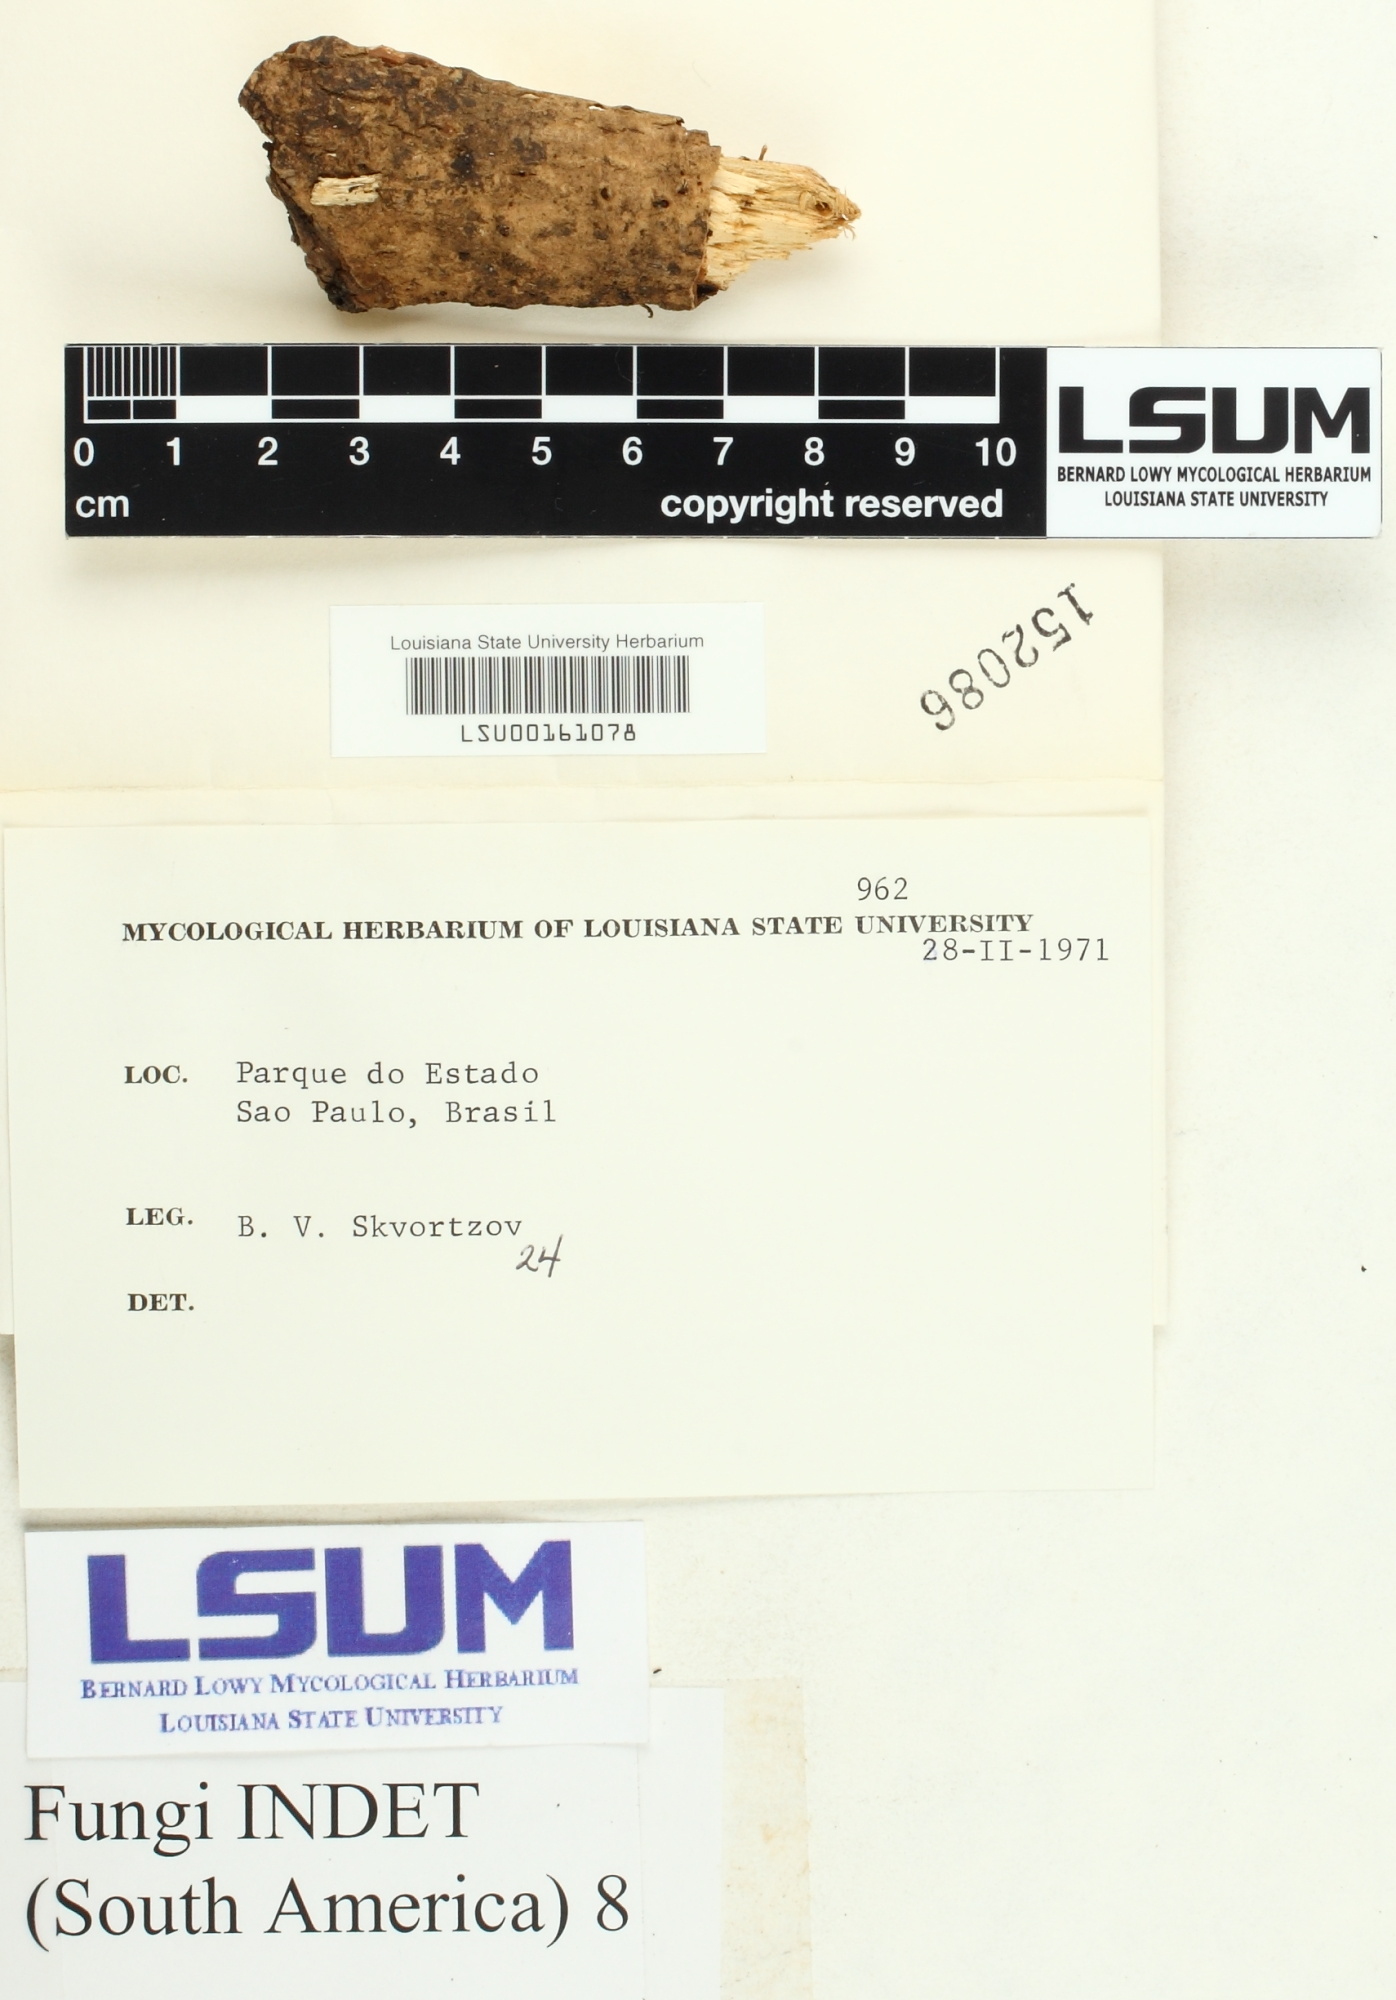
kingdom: Fungi
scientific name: Fungi
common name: Fungi
